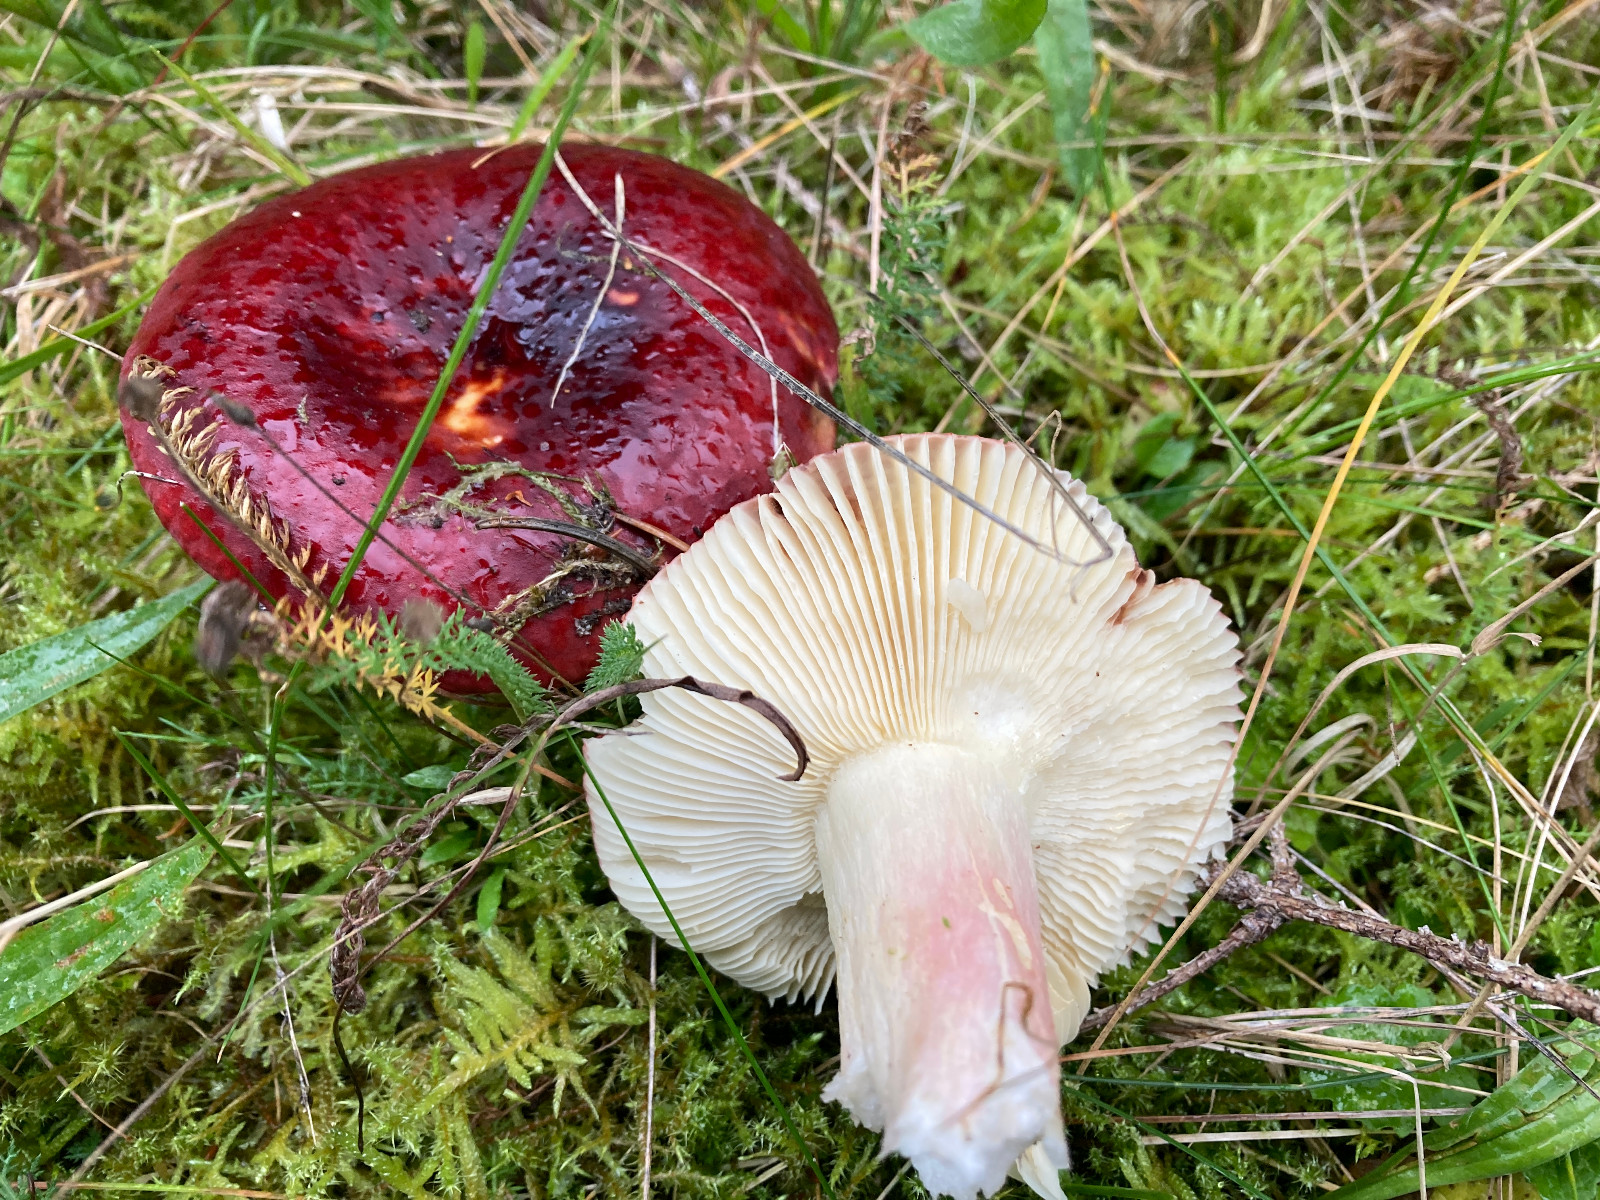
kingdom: Fungi
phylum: Basidiomycota
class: Agaricomycetes
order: Russulales
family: Russulaceae
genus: Russula
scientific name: Russula xerampelina
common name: hummer-skørhat
